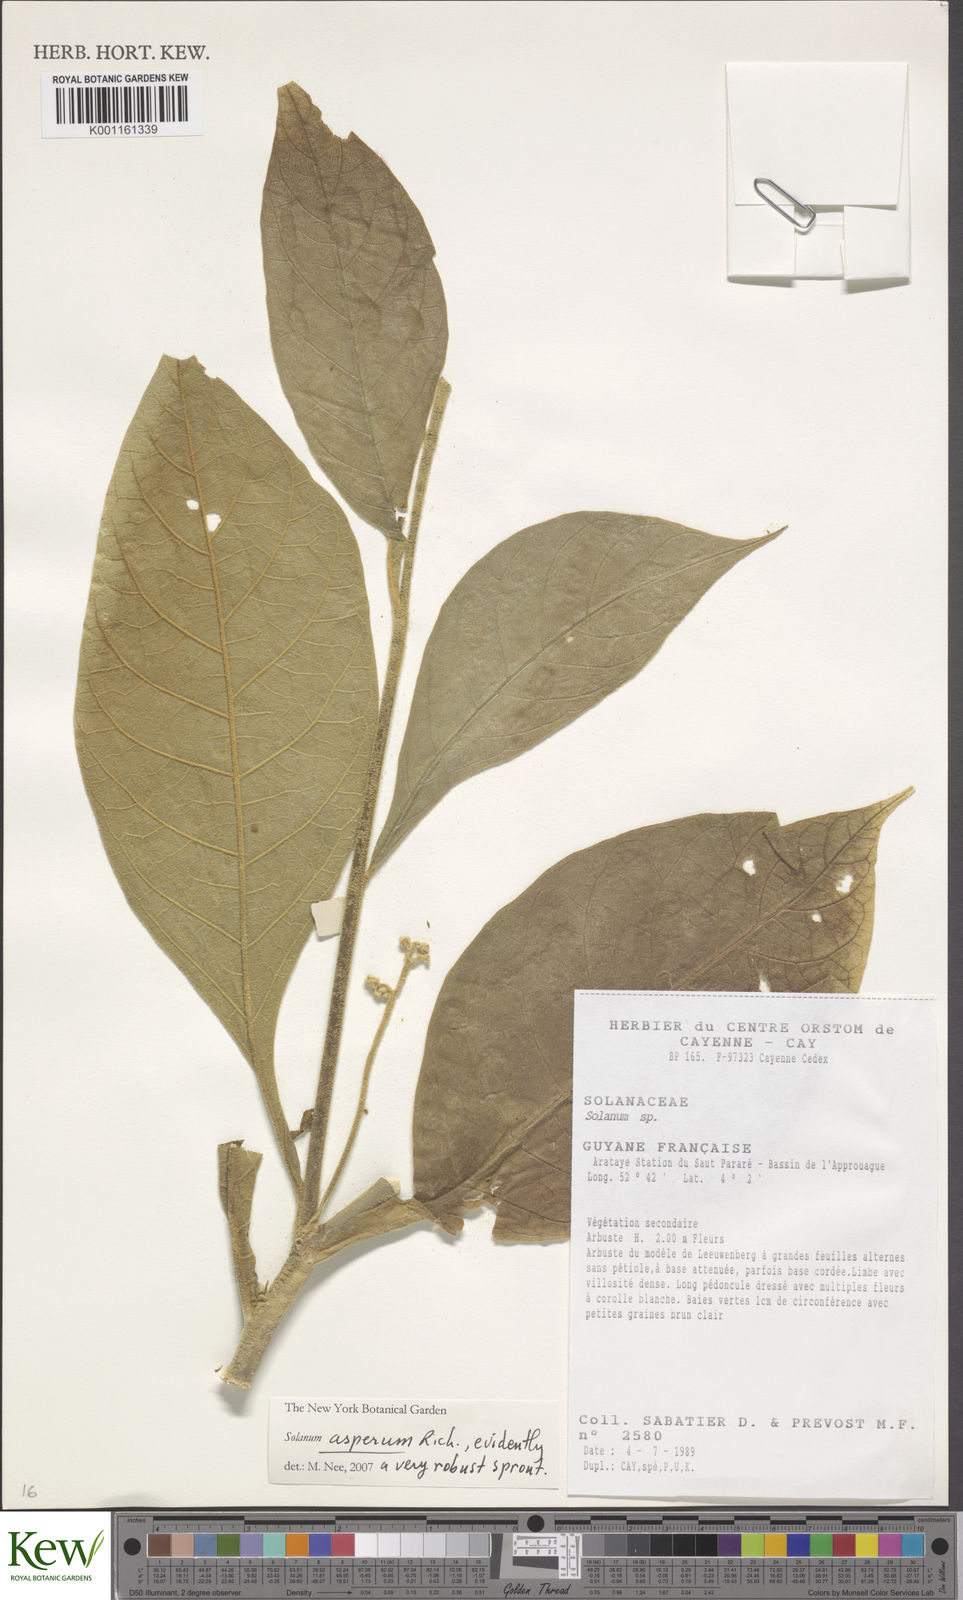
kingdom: Plantae
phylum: Tracheophyta
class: Magnoliopsida
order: Solanales
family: Solanaceae
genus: Solanum
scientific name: Solanum asperum
